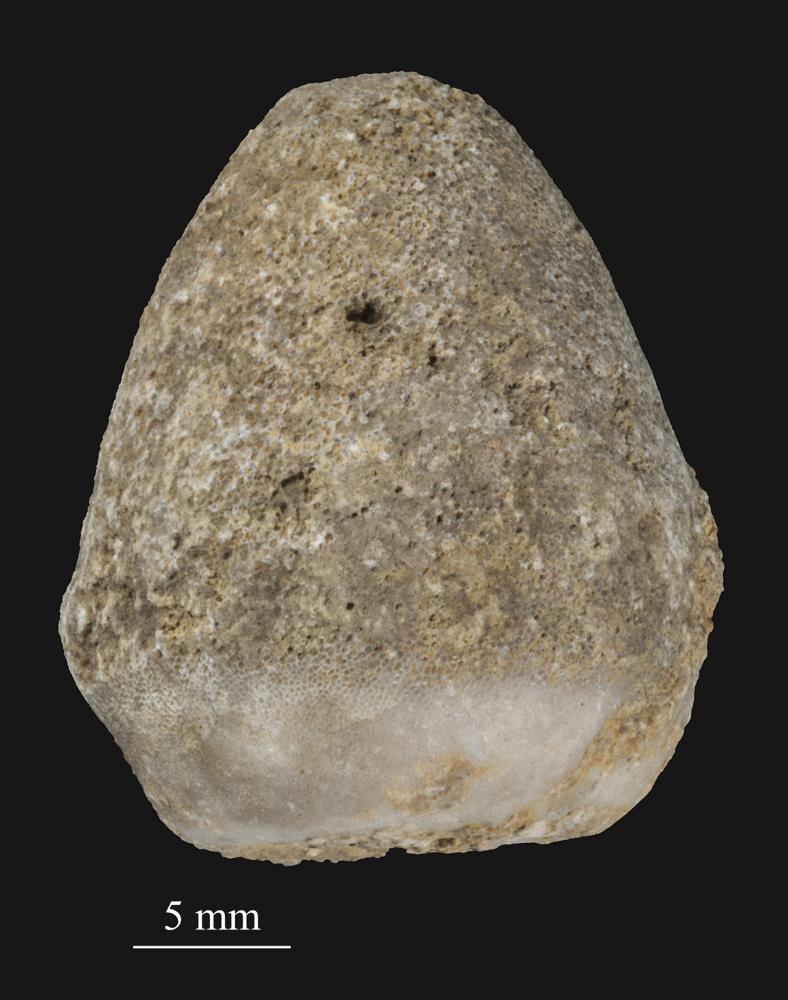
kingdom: Animalia
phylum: Bryozoa
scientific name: Bryozoa
